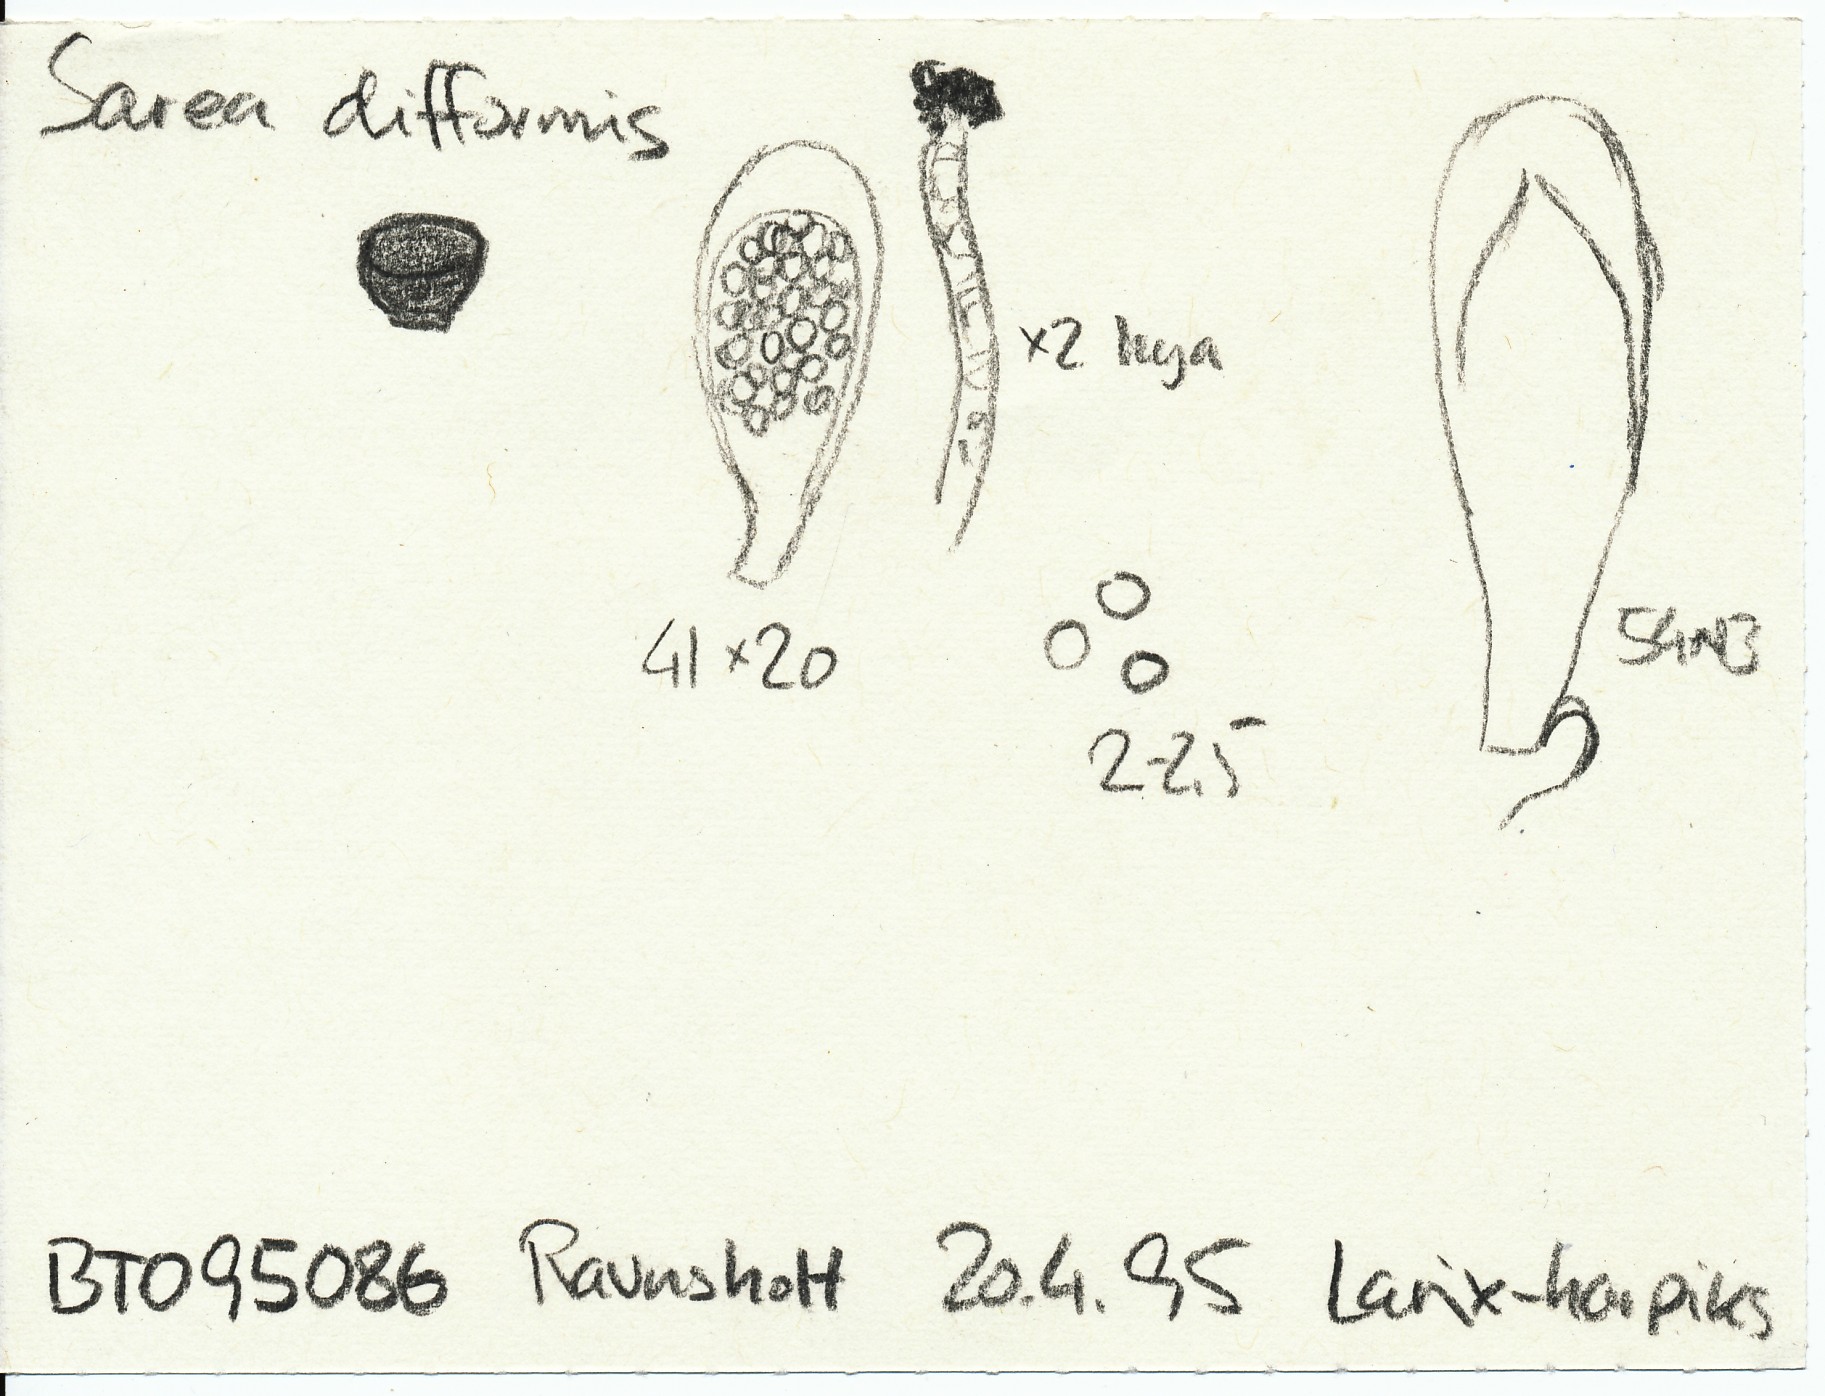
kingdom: Fungi
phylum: Ascomycota
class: Sareomycetes
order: Sareales
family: Sareaceae
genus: Sarea
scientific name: Sarea difformis
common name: mørk harpiksskive
